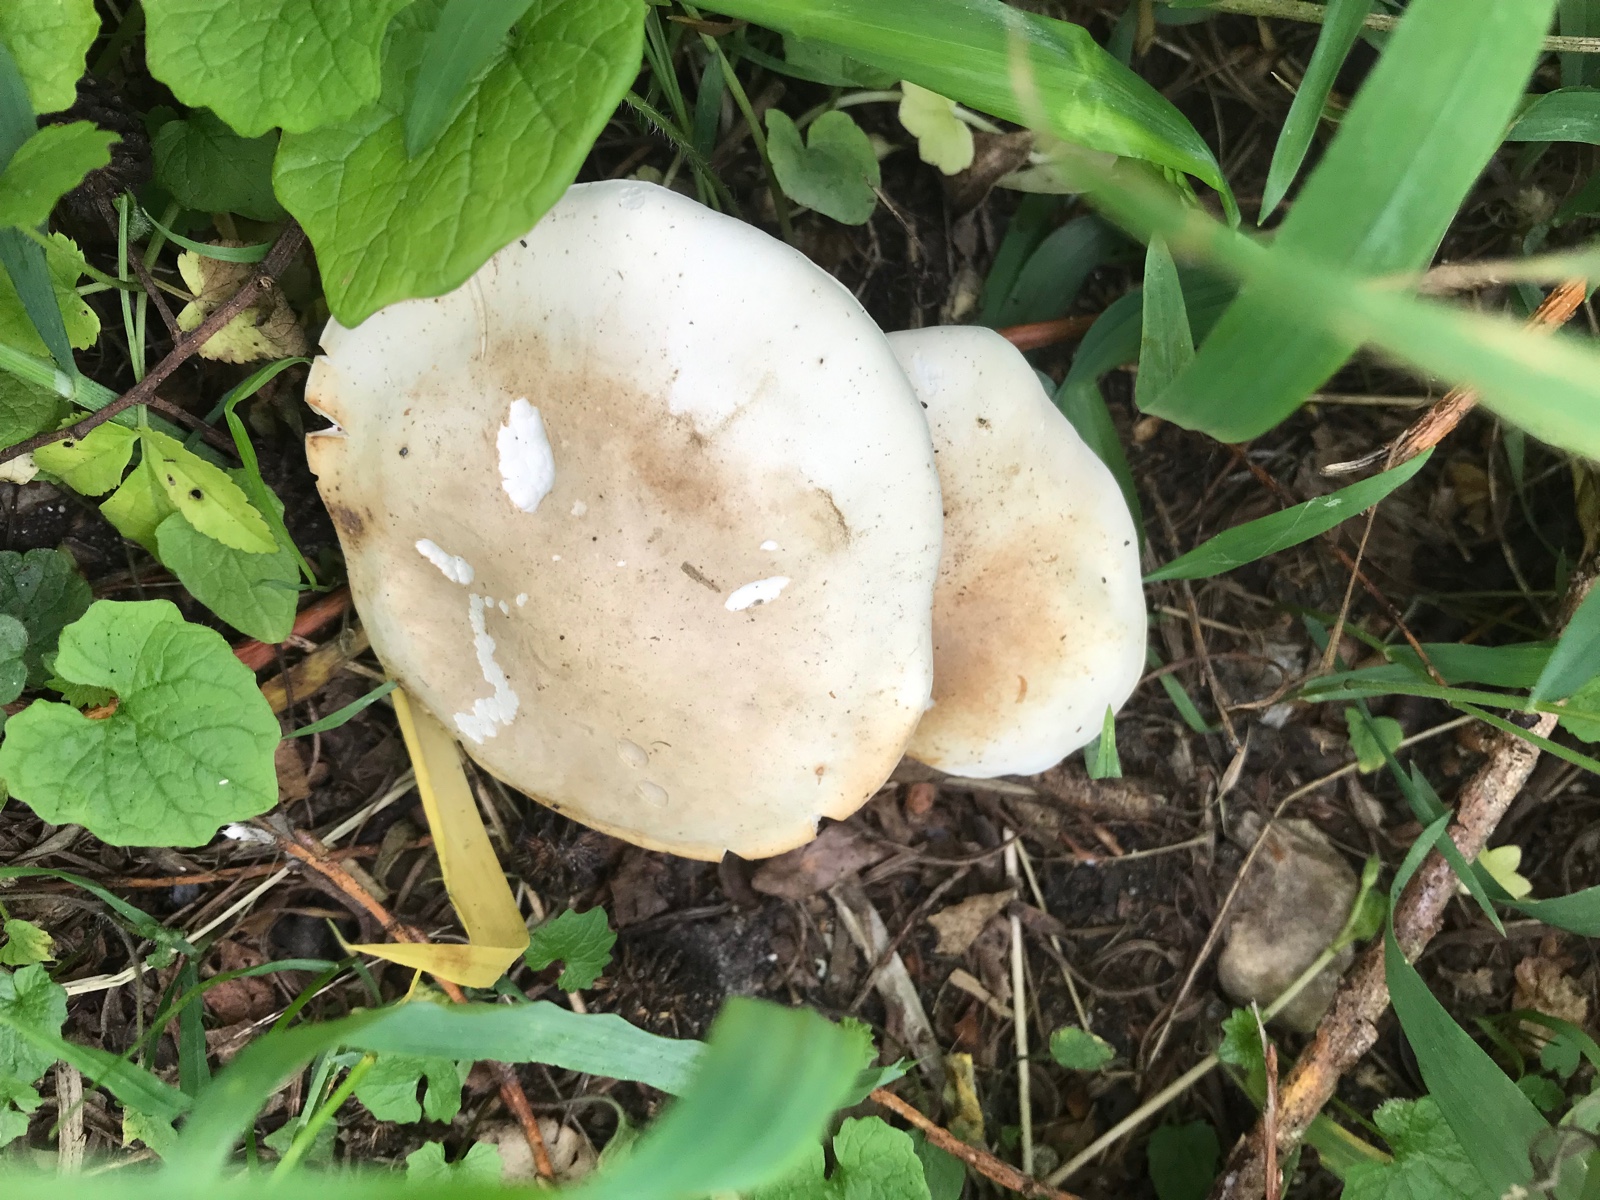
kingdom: Fungi
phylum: Basidiomycota
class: Agaricomycetes
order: Agaricales
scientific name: Agaricales
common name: champignonordenen
